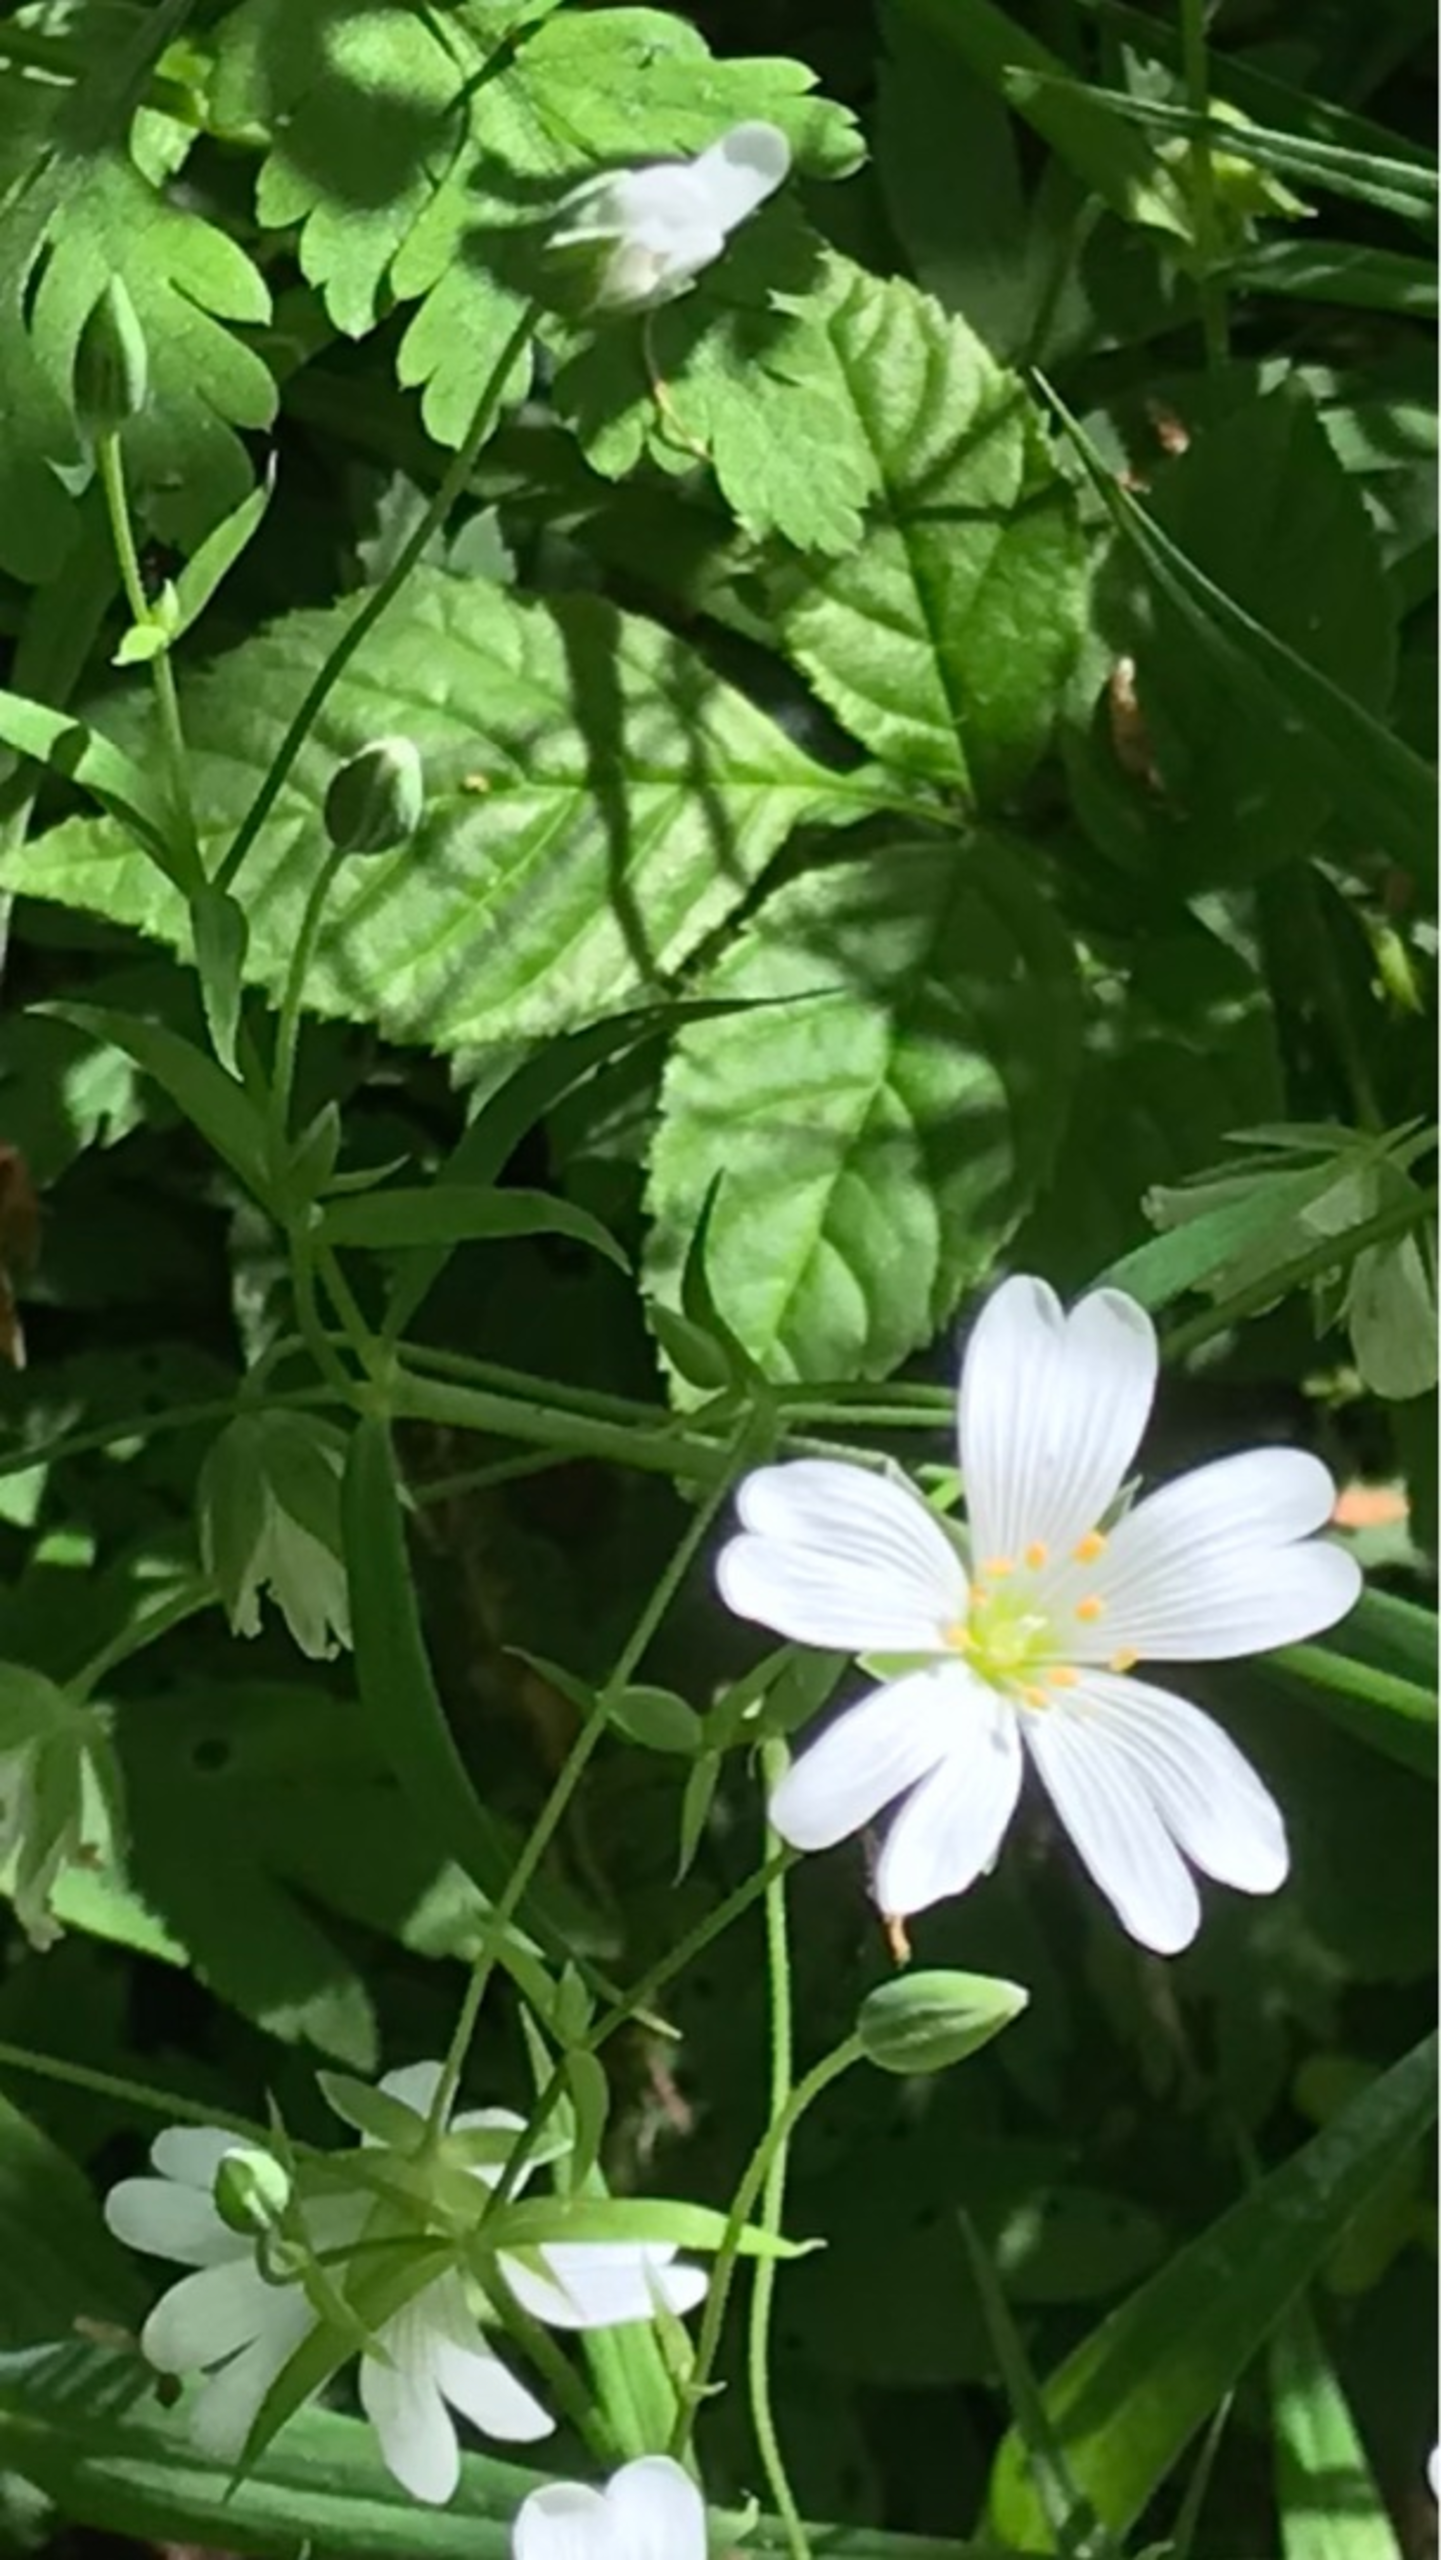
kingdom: Plantae
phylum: Tracheophyta
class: Magnoliopsida
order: Caryophyllales
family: Caryophyllaceae
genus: Rabelera
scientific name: Rabelera holostea
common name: Stor fladstjerne
